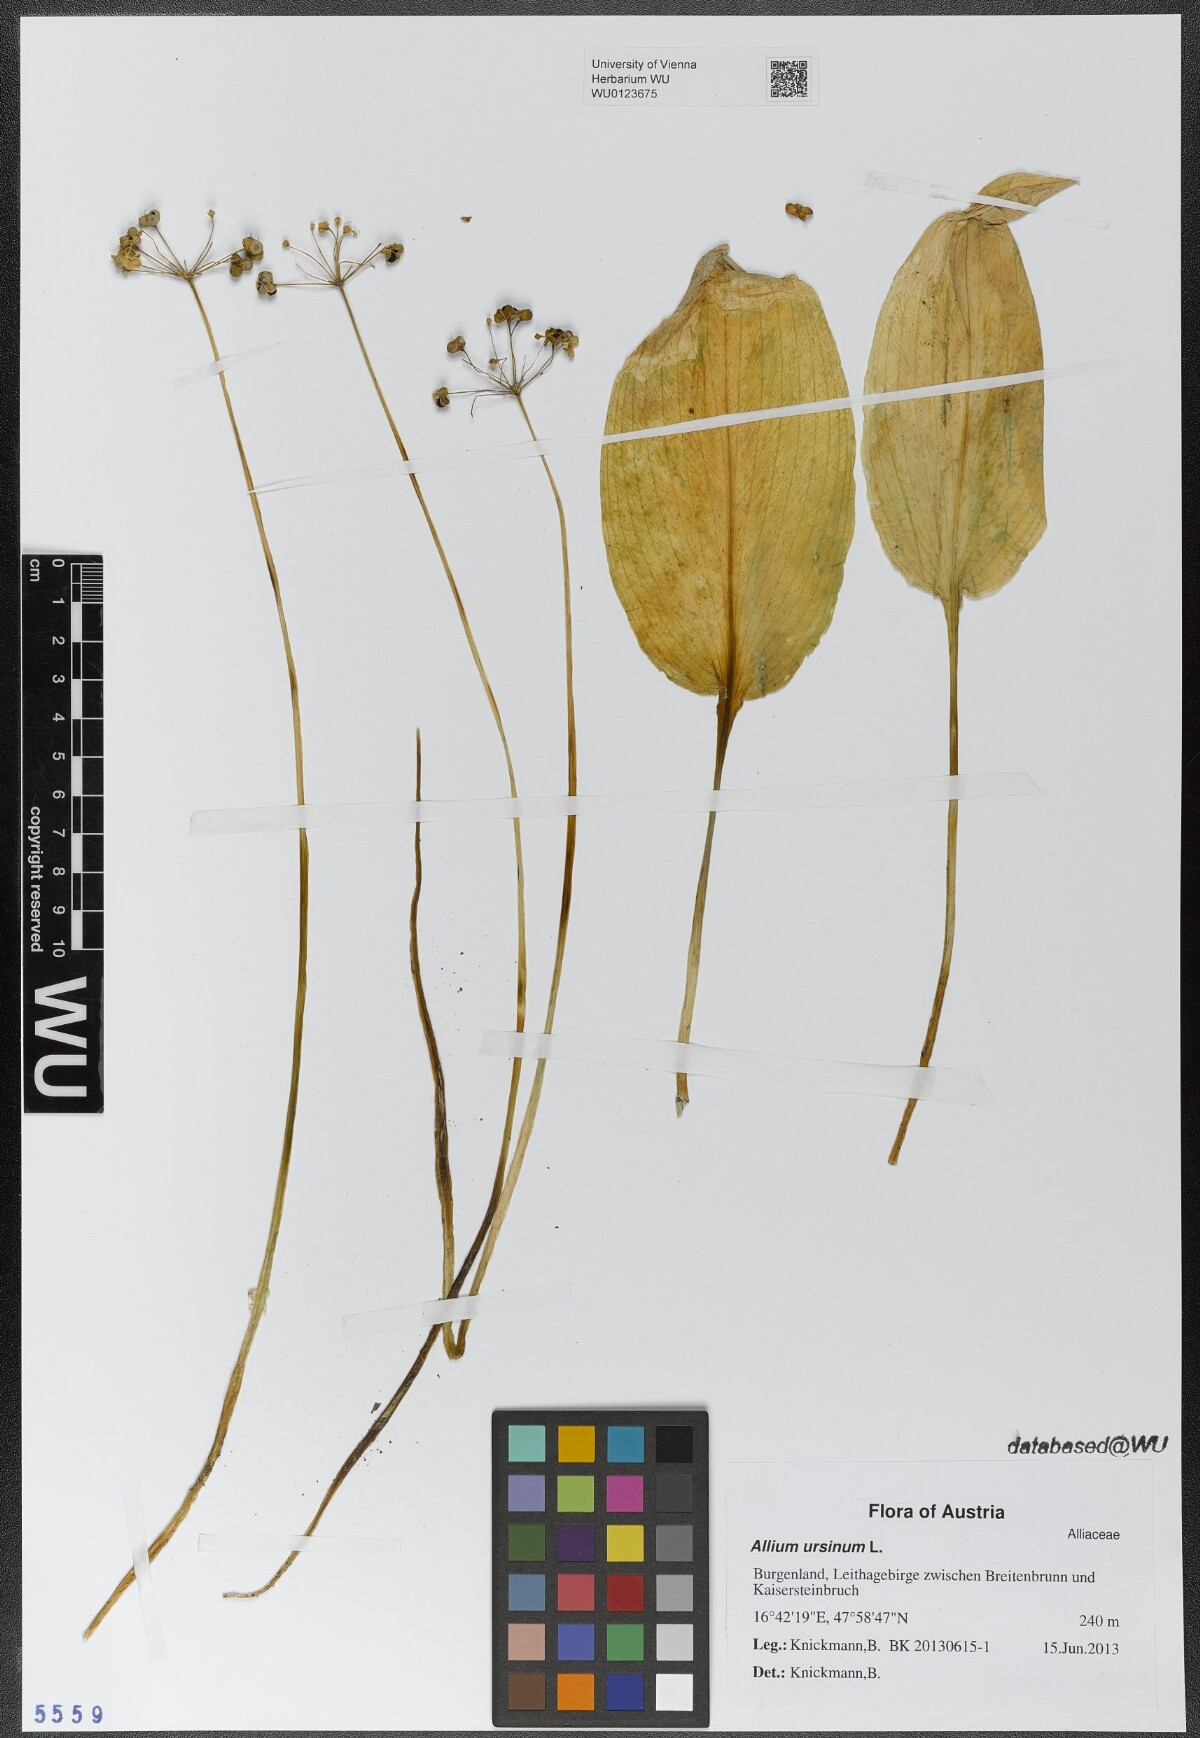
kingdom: Plantae
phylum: Tracheophyta
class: Liliopsida
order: Asparagales
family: Amaryllidaceae
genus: Allium
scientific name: Allium ursinum
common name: Ramsons
